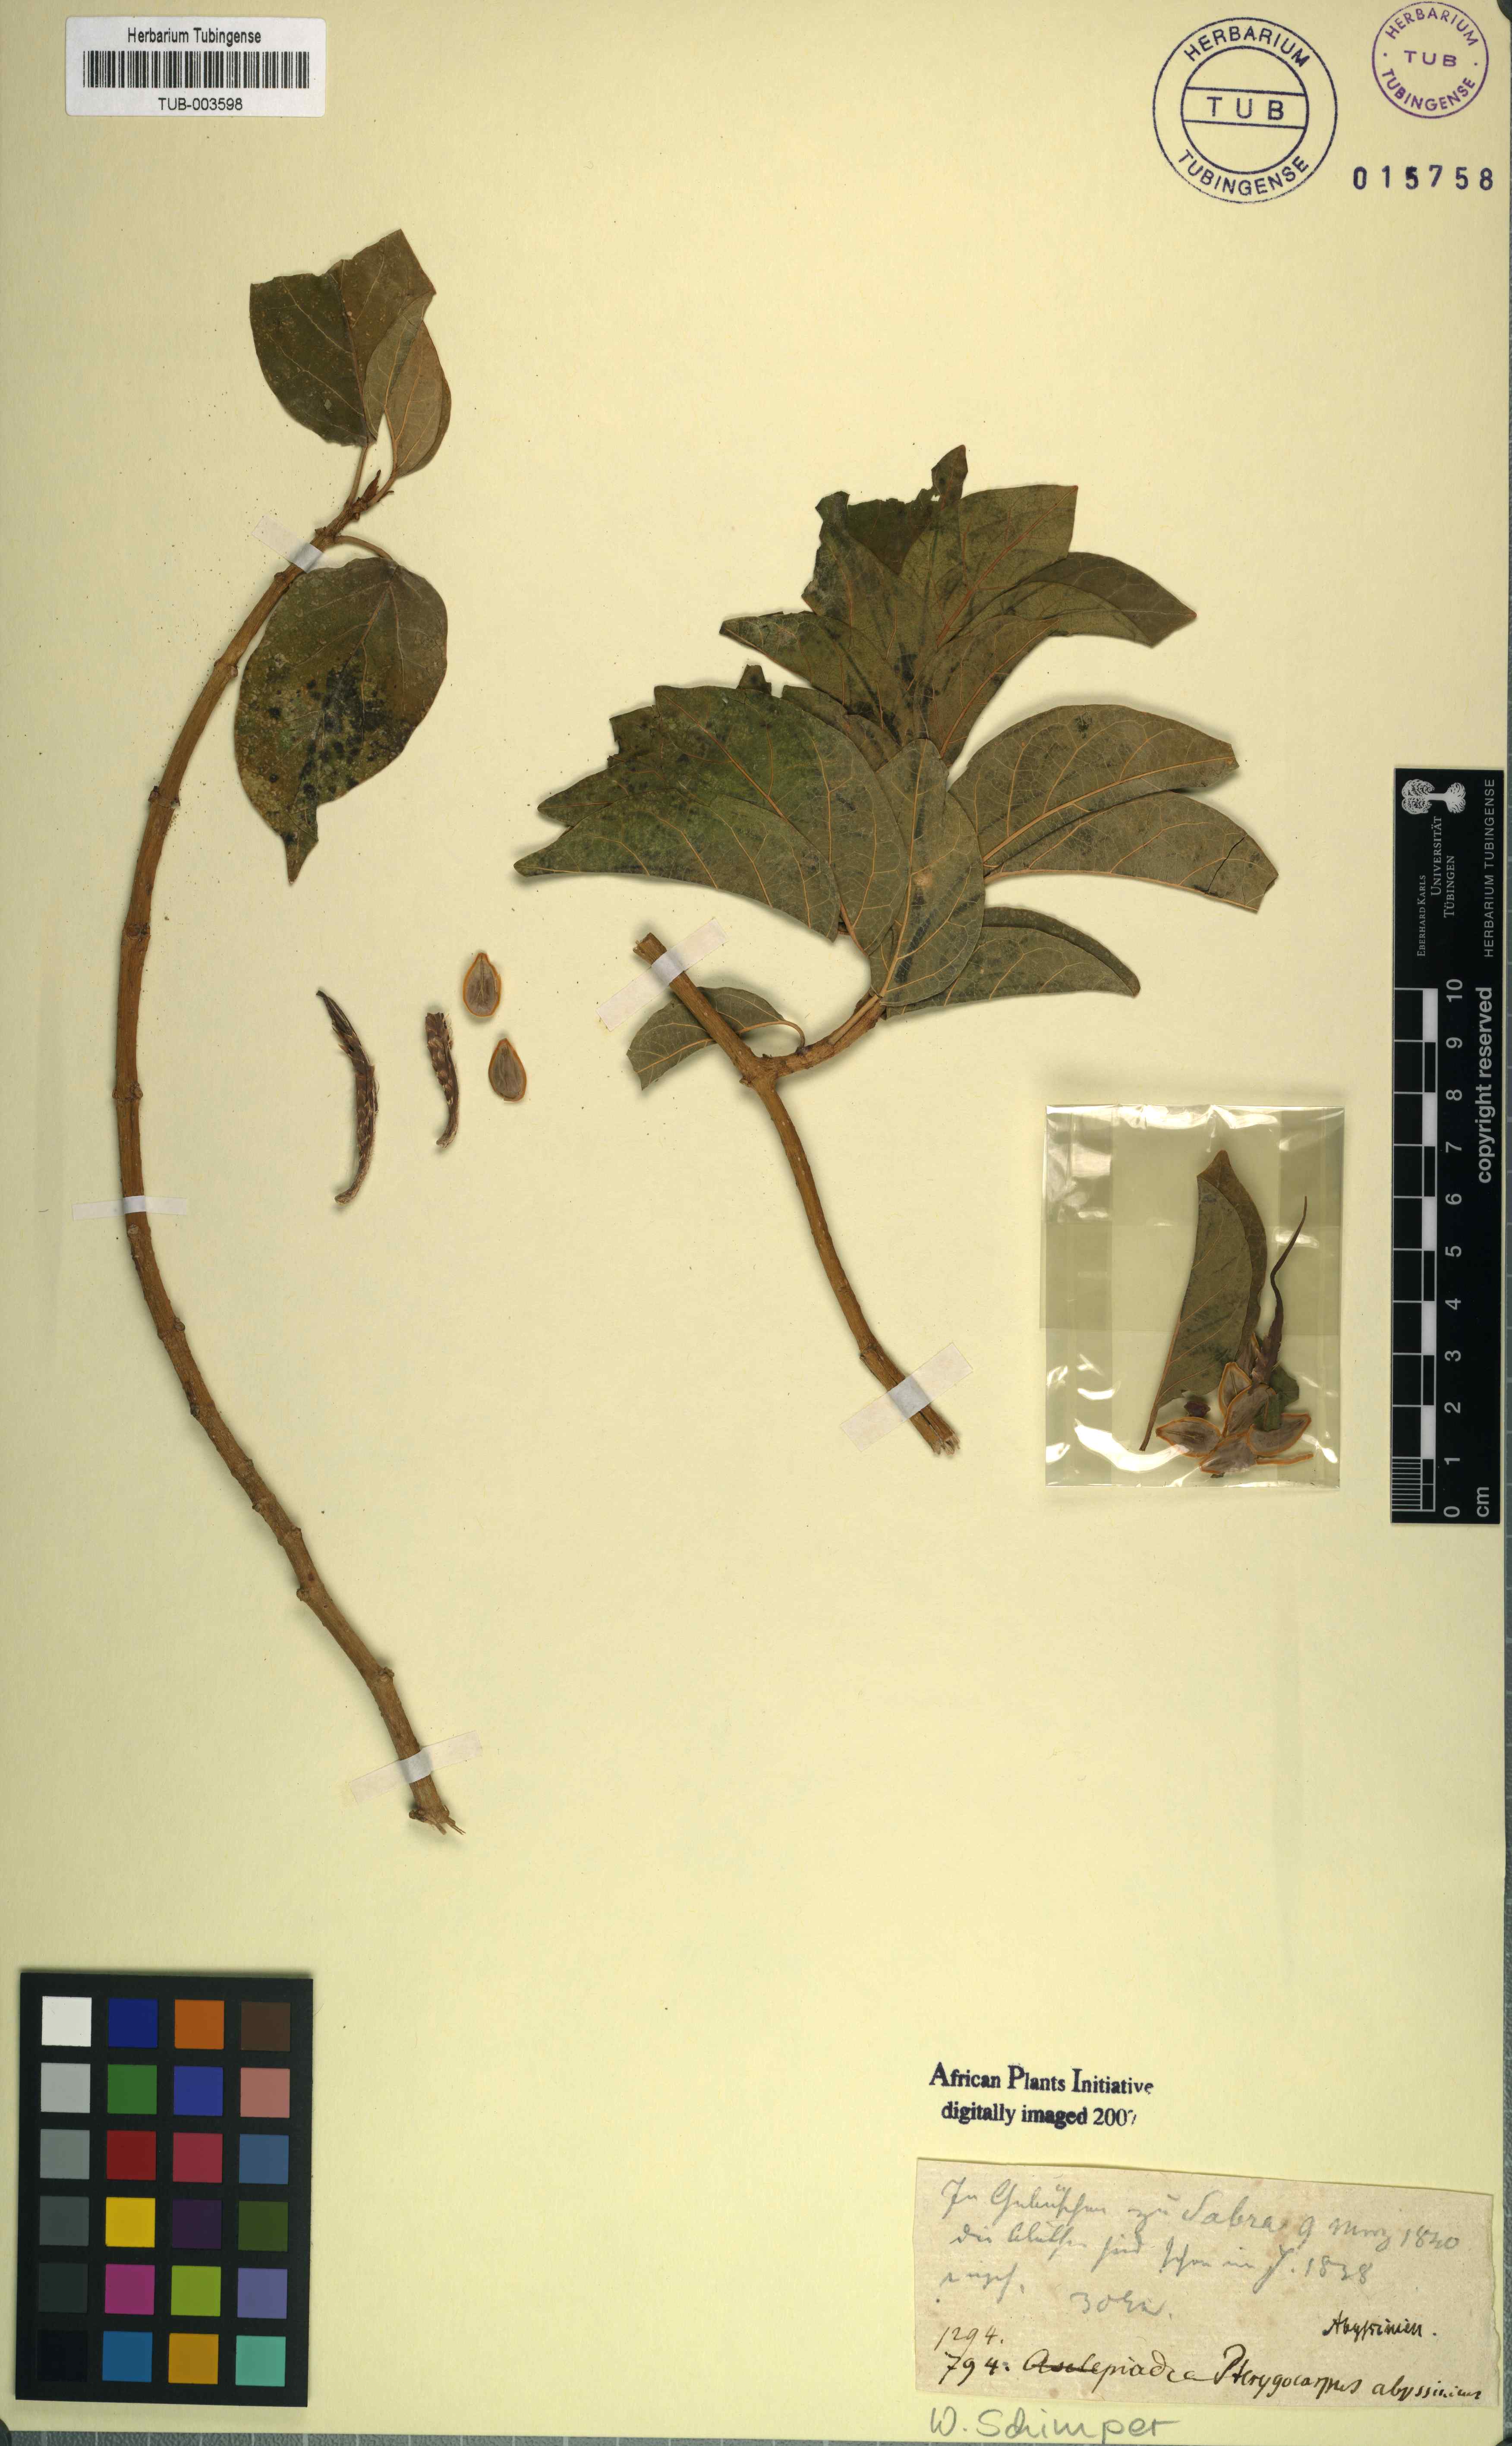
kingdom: Plantae
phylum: Tracheophyta
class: Magnoliopsida
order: Gentianales
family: Apocynaceae
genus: Stephanotis
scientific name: Stephanotis abyssinica
